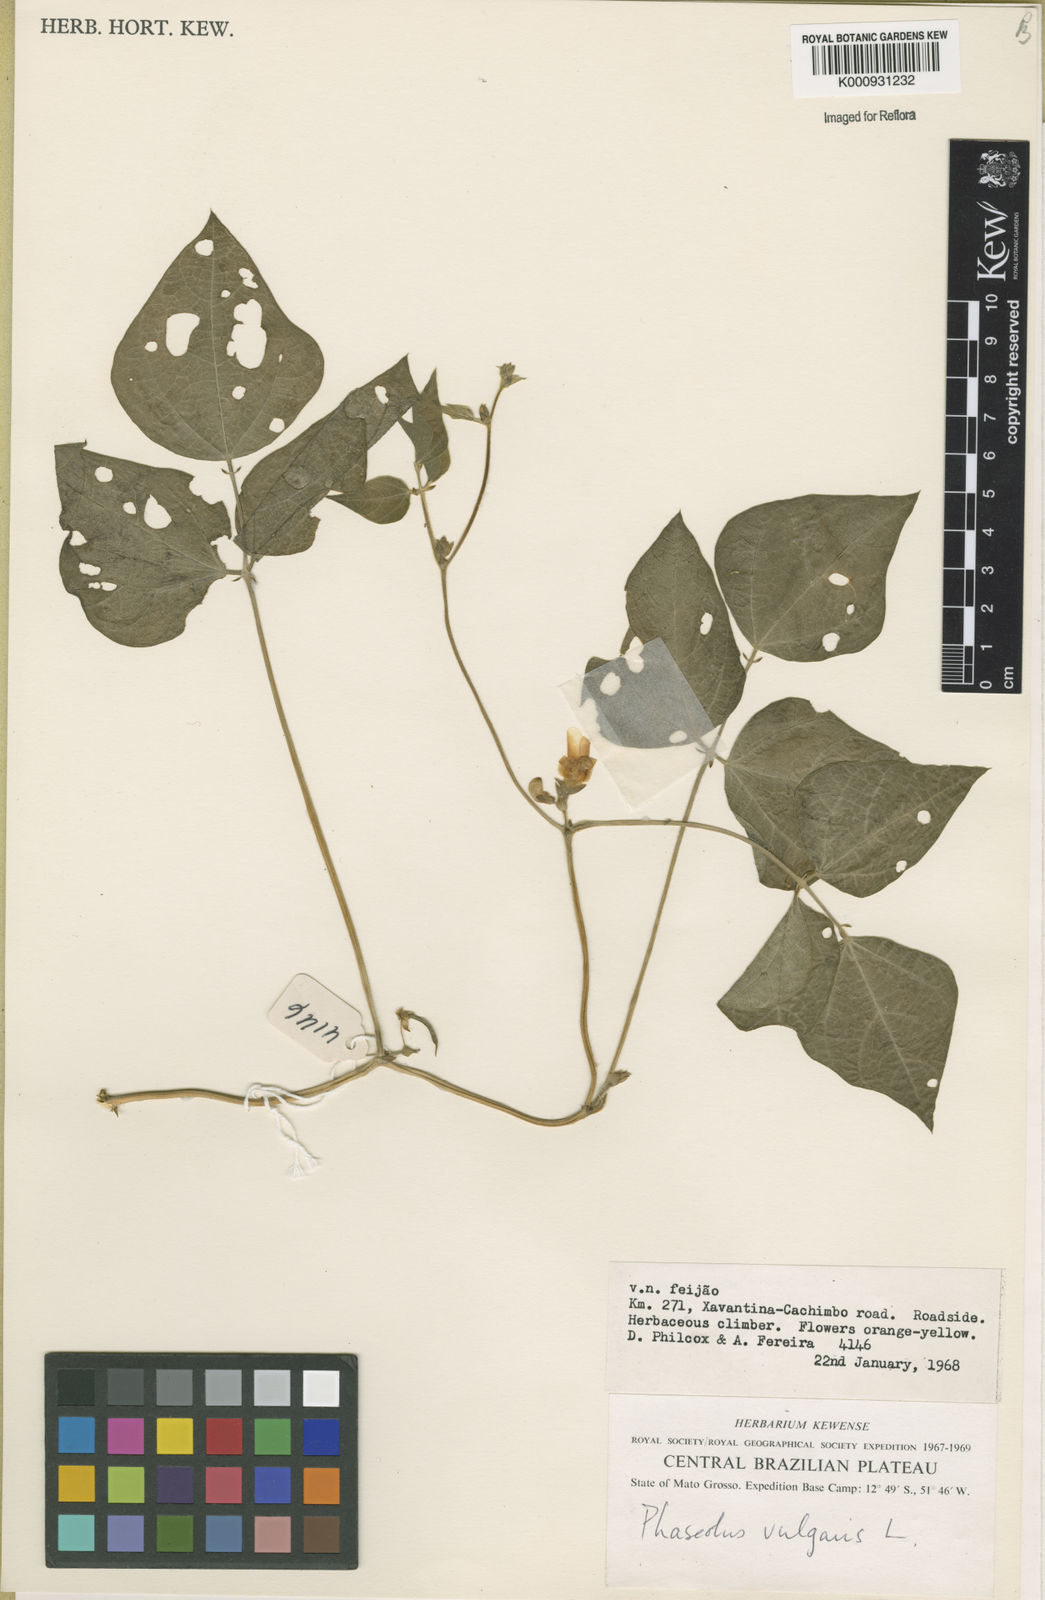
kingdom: Plantae
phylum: Tracheophyta
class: Magnoliopsida
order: Fabales
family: Fabaceae
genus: Phaseolus
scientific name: Phaseolus vulgaris
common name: Bean
